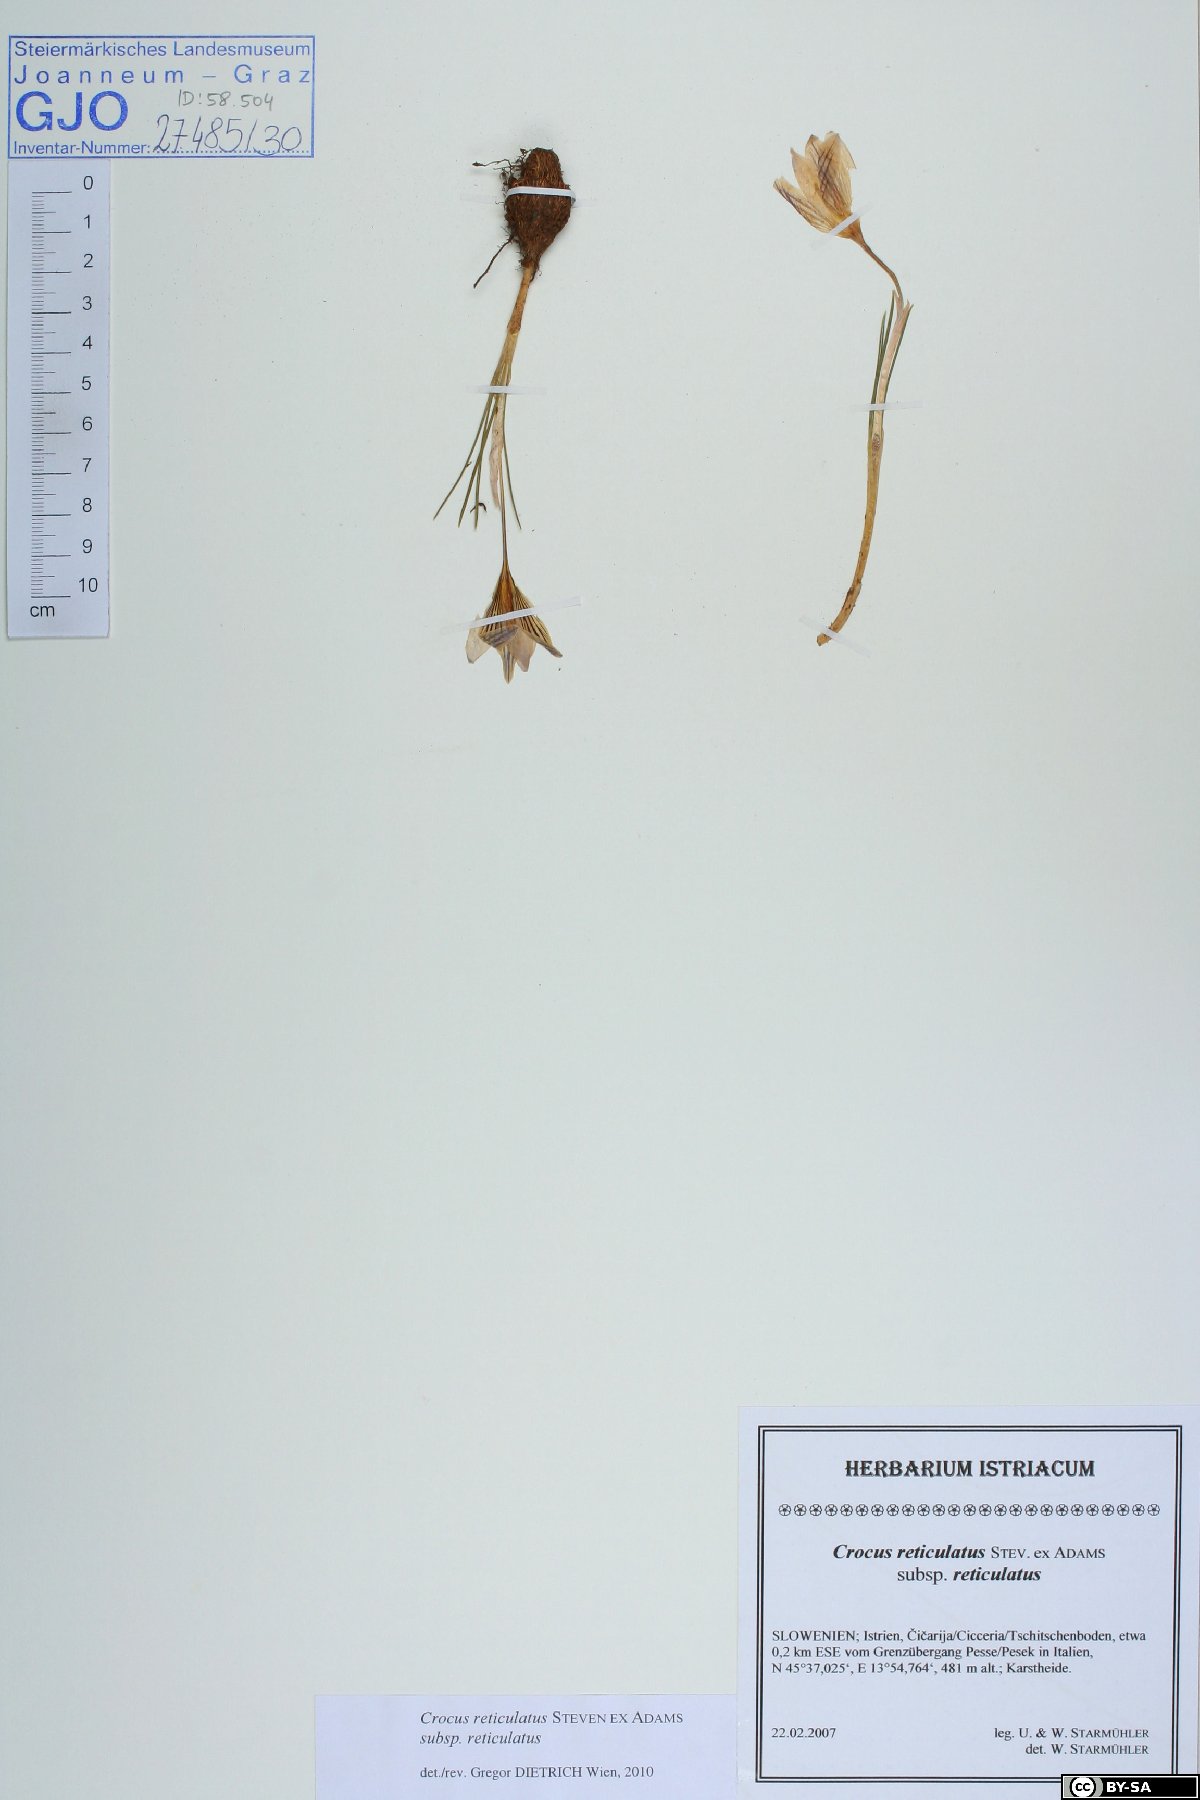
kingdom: Plantae
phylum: Tracheophyta
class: Liliopsida
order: Asparagales
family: Iridaceae
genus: Crocus
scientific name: Crocus reticulatus
